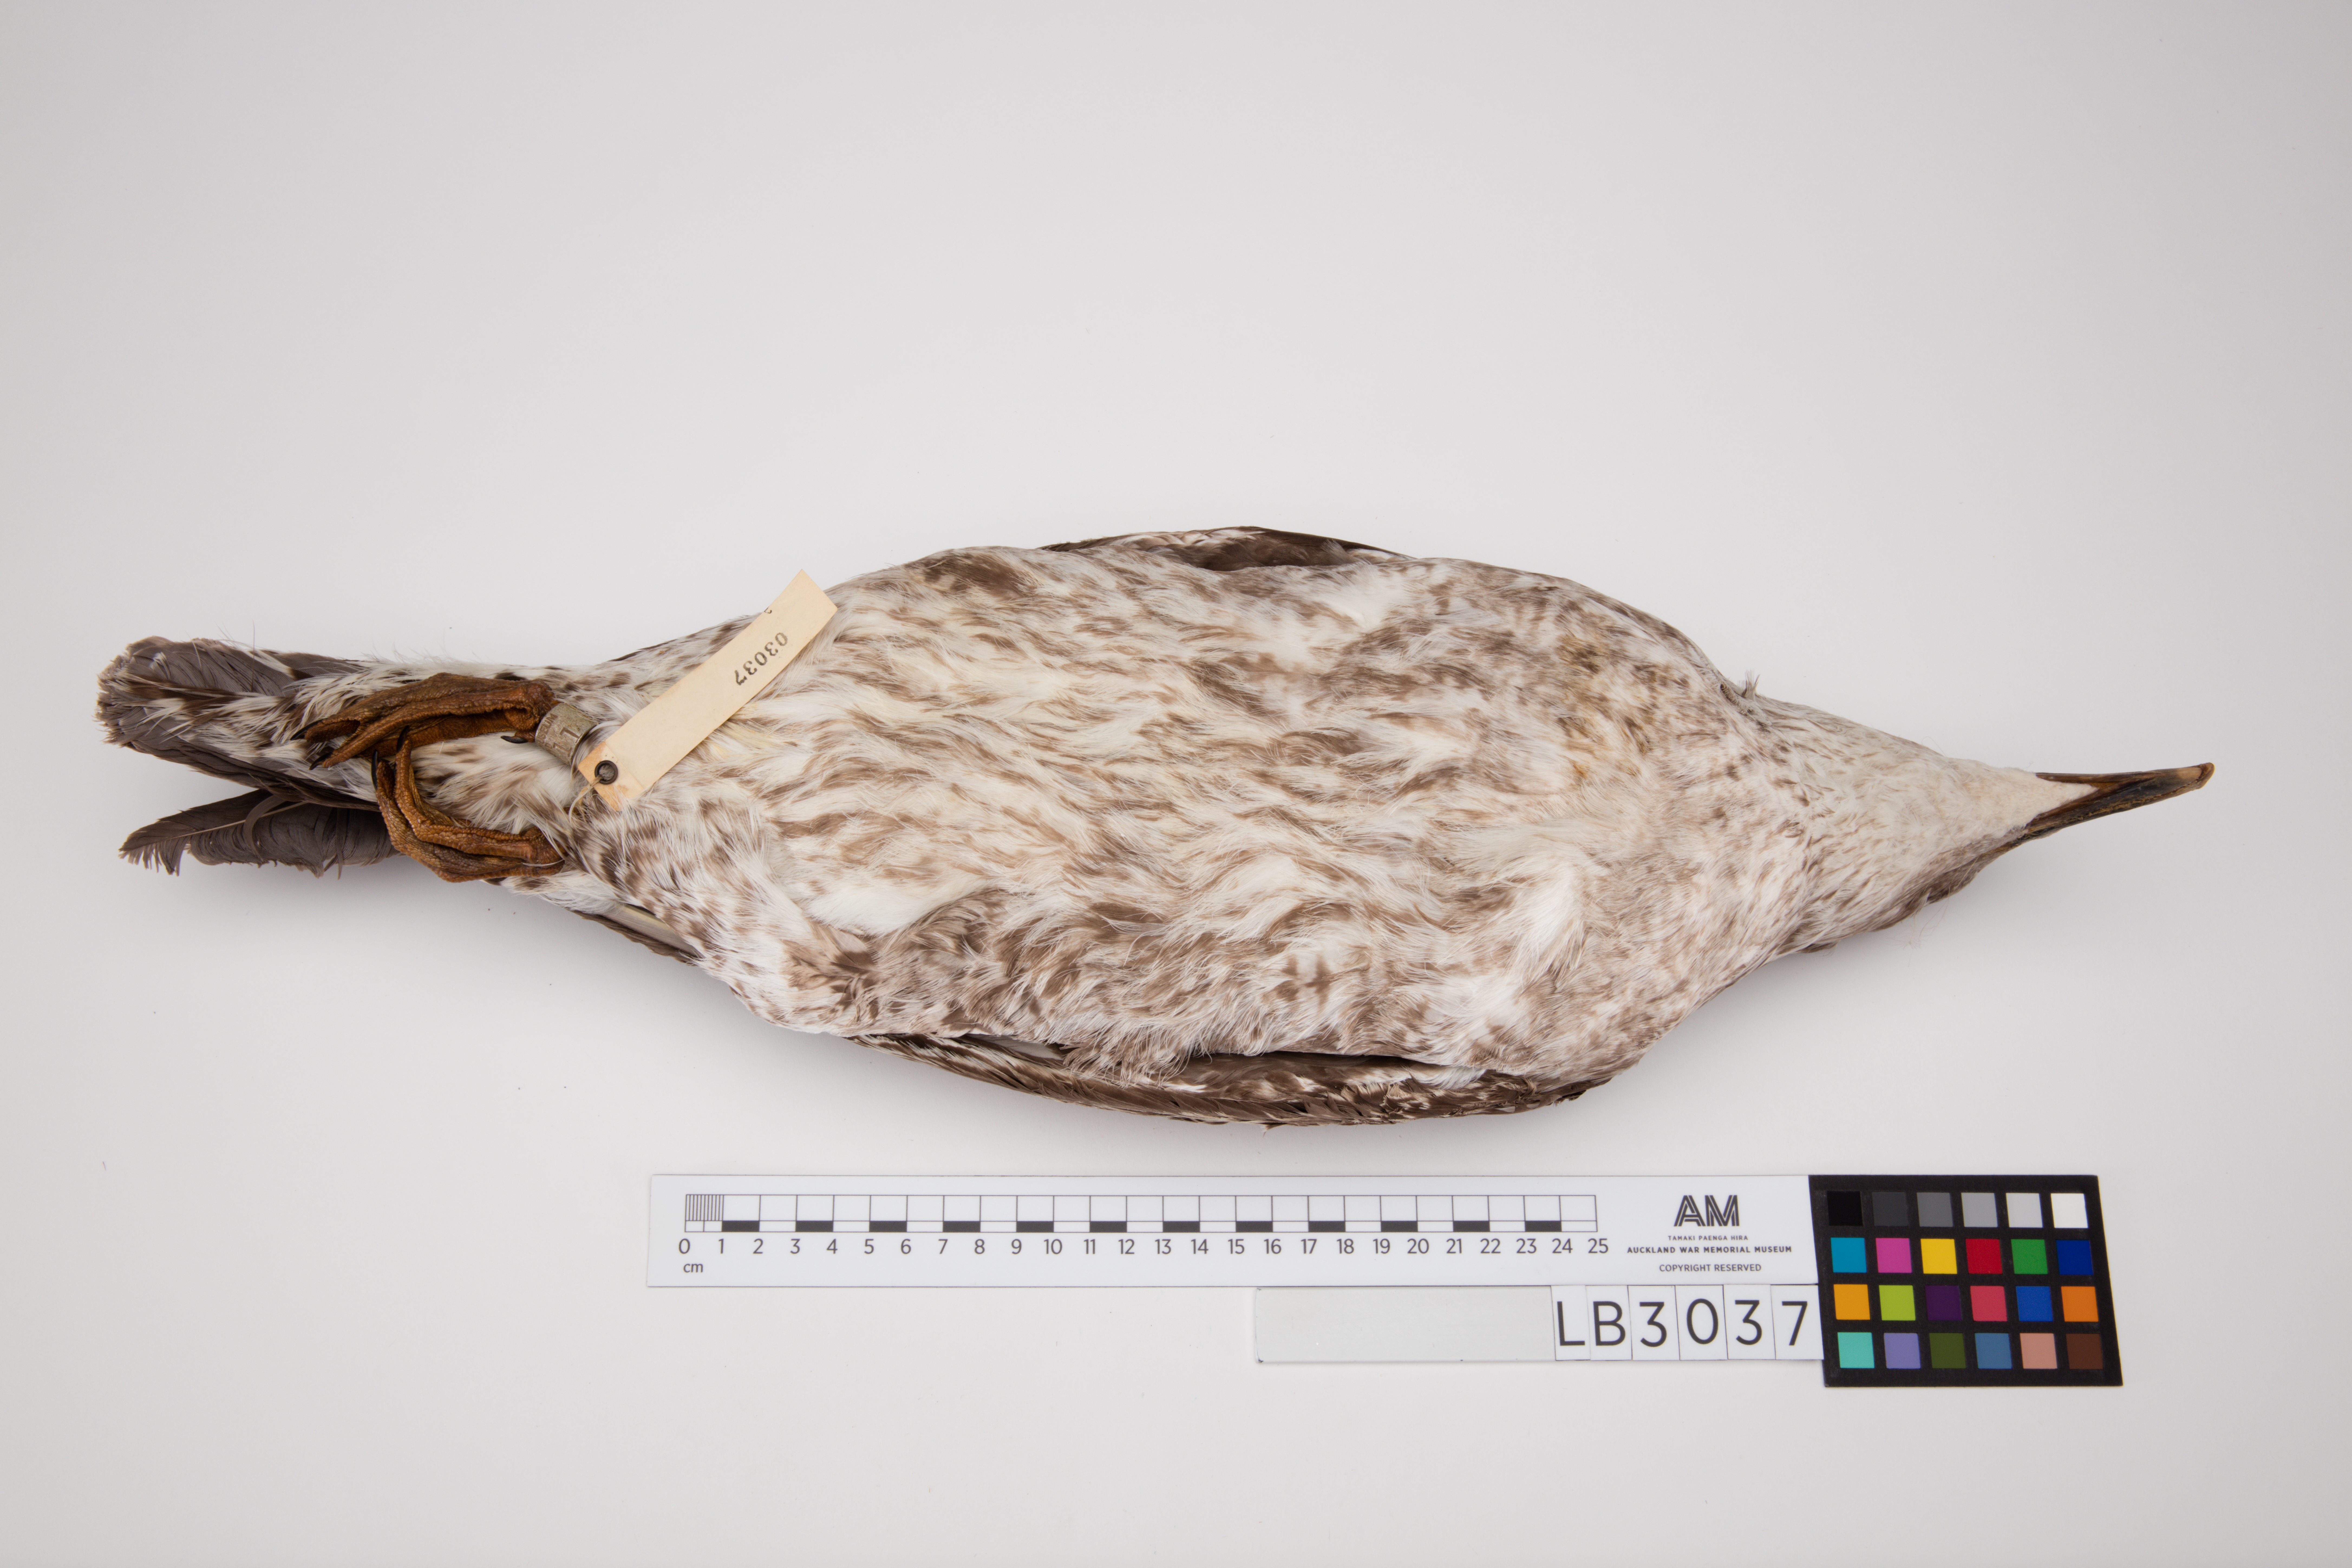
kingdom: Animalia
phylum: Chordata
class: Aves
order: Charadriiformes
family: Laridae
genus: Larus
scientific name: Larus dominicanus
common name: Kelp gull
